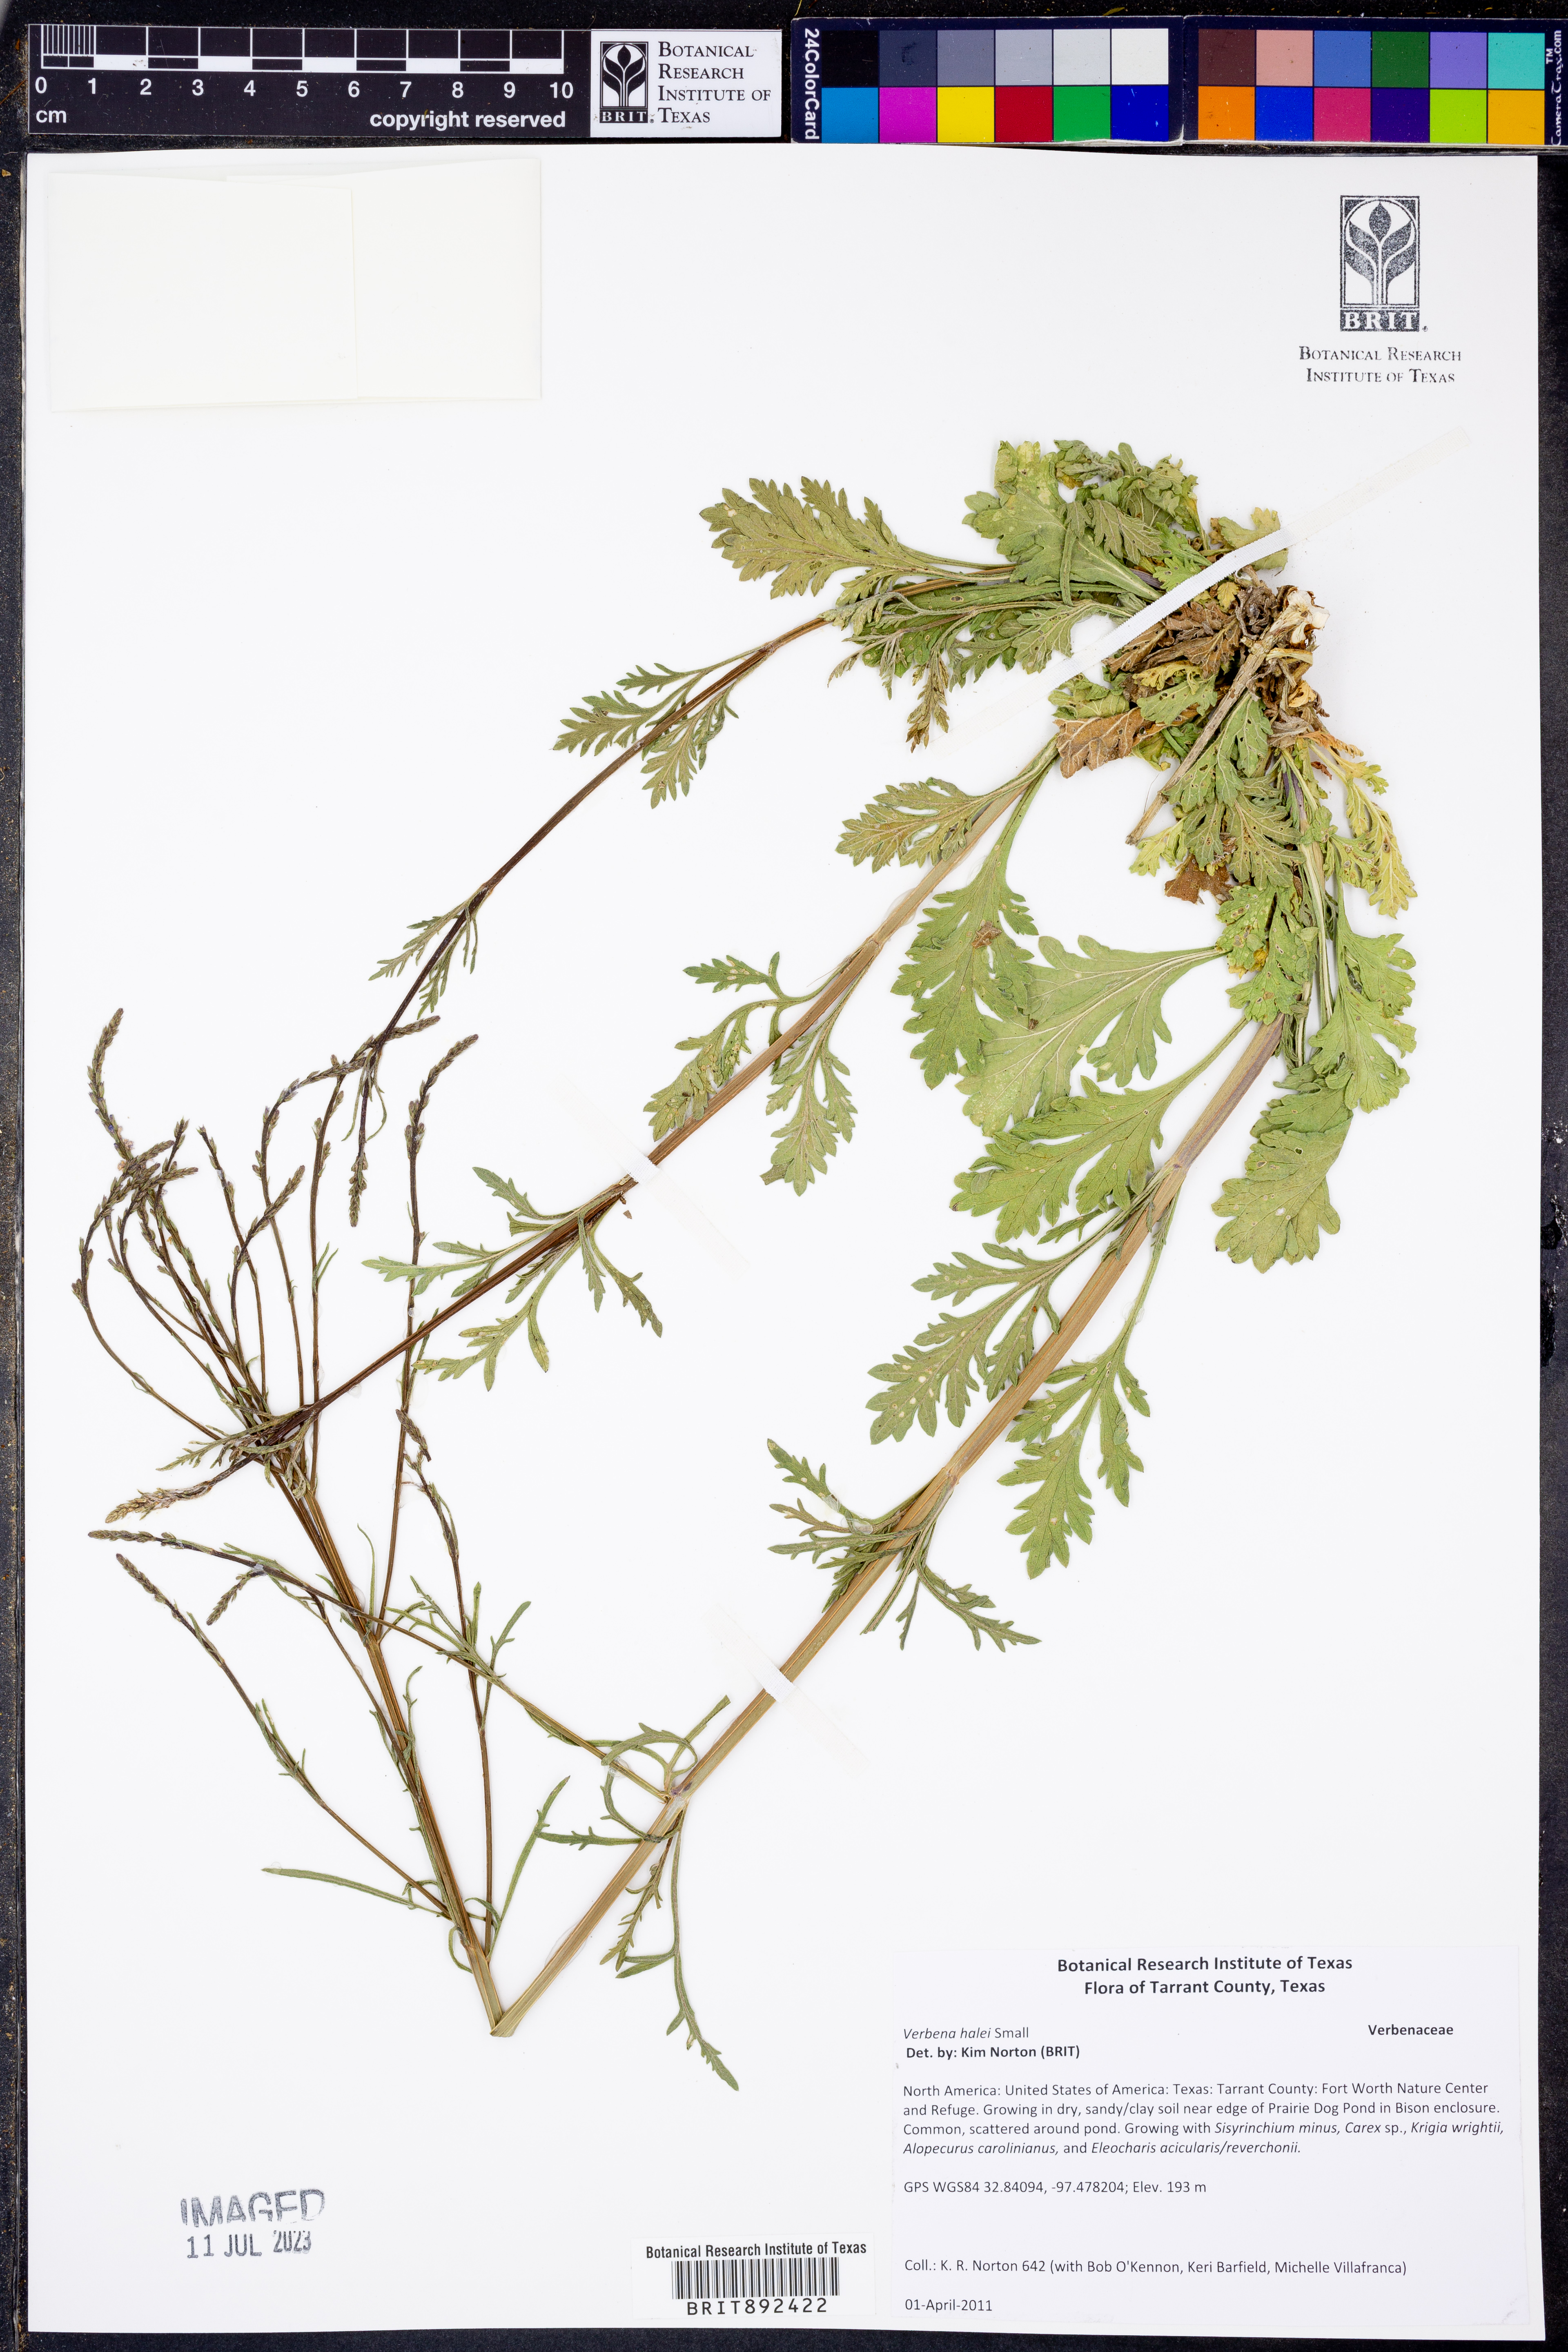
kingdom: Plantae
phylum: Tracheophyta
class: Magnoliopsida
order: Lamiales
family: Verbenaceae
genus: Verbena
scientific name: Verbena halei
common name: Texas vervain
